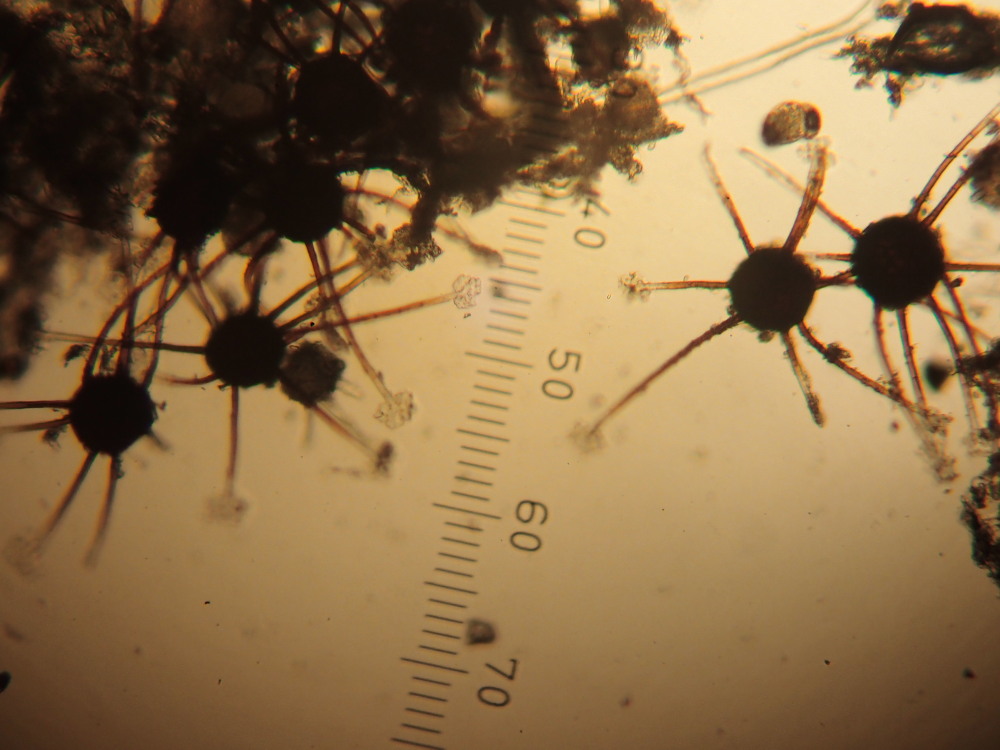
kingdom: Fungi
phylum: Ascomycota
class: Leotiomycetes
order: Helotiales
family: Erysiphaceae
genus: Podosphaera
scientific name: Podosphaera clandestina
